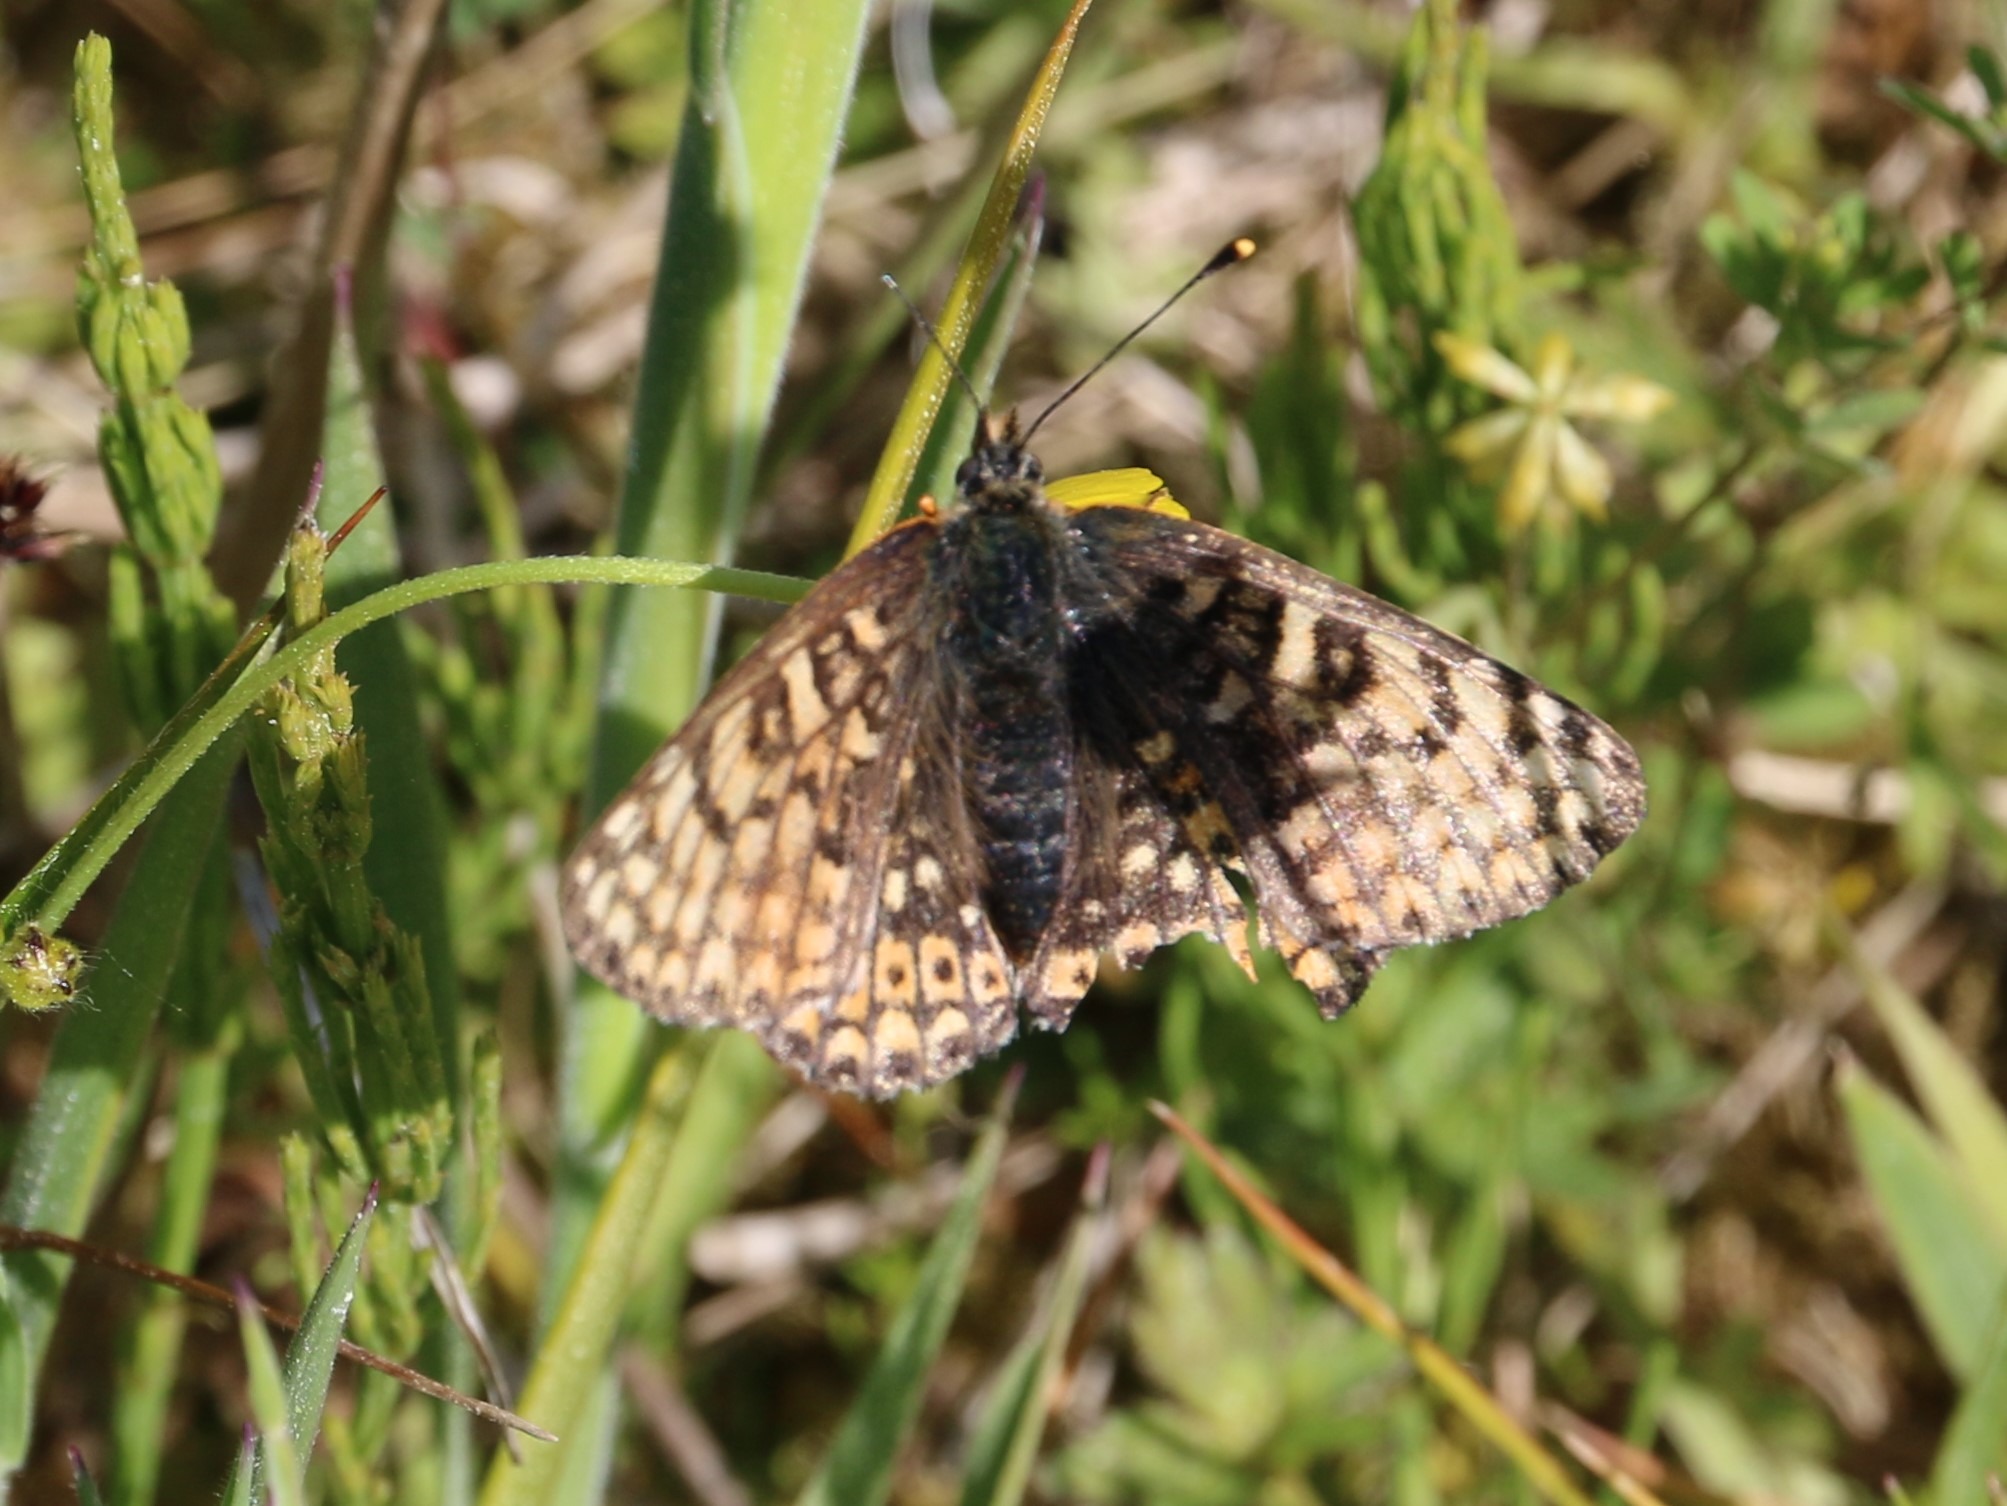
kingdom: Animalia
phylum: Arthropoda
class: Insecta
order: Lepidoptera
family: Nymphalidae
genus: Melitaea
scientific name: Melitaea cinxia
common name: Okkergul pletvinge
